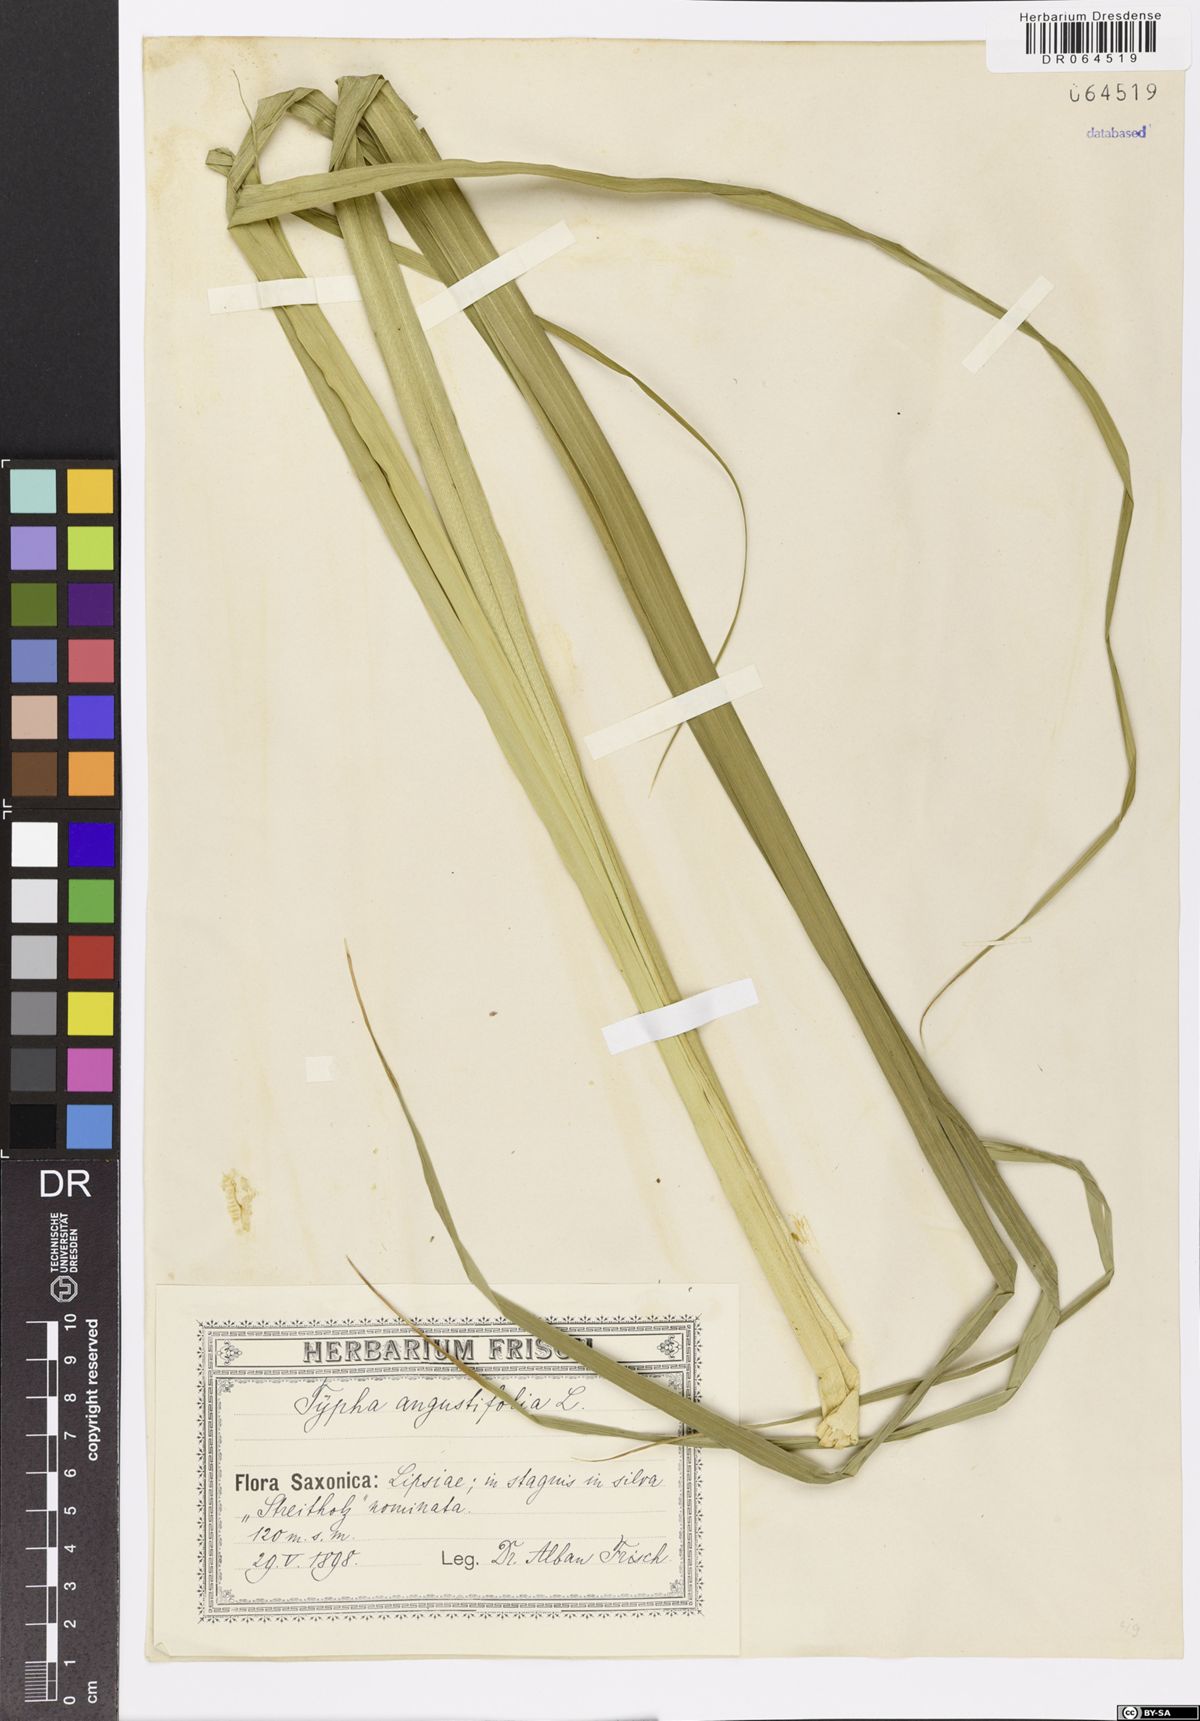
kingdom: Plantae
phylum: Tracheophyta
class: Liliopsida
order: Poales
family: Typhaceae
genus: Typha
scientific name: Typha angustifolia
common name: Lesser bulrush
